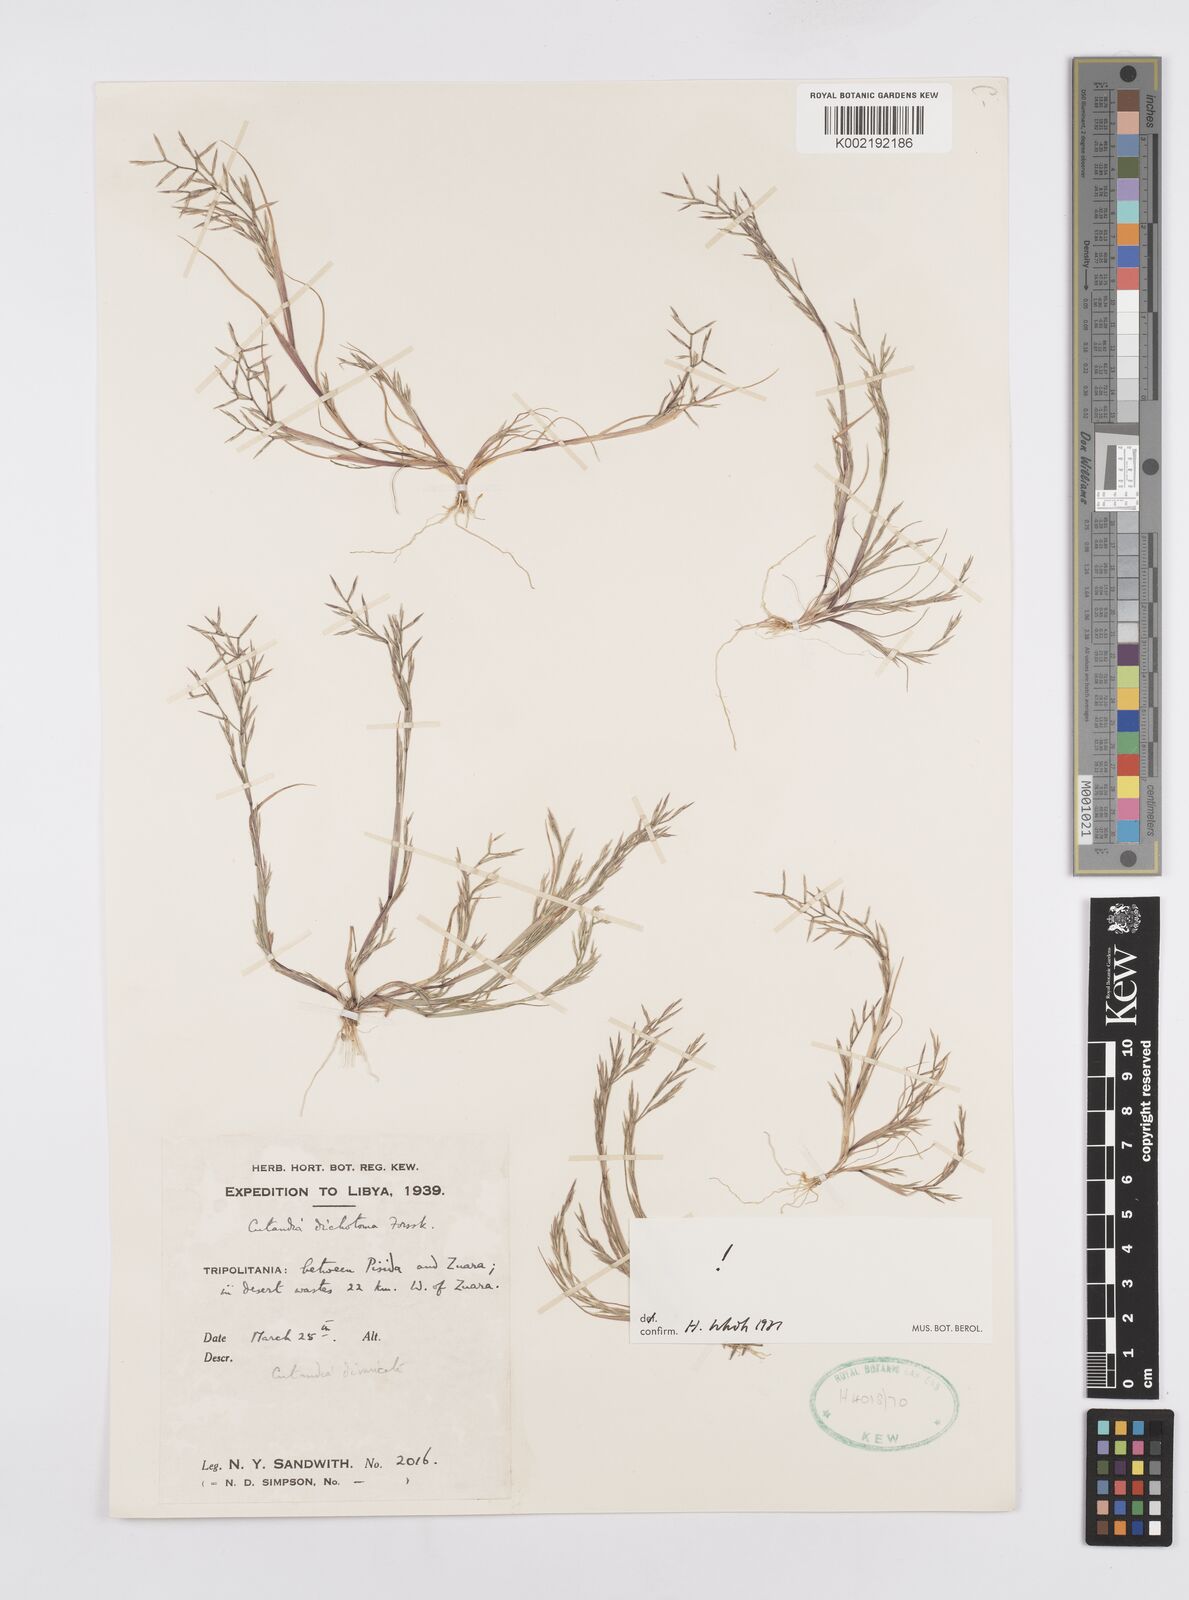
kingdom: Plantae
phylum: Tracheophyta
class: Liliopsida
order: Poales
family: Poaceae
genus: Cutandia
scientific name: Cutandia dichotoma
